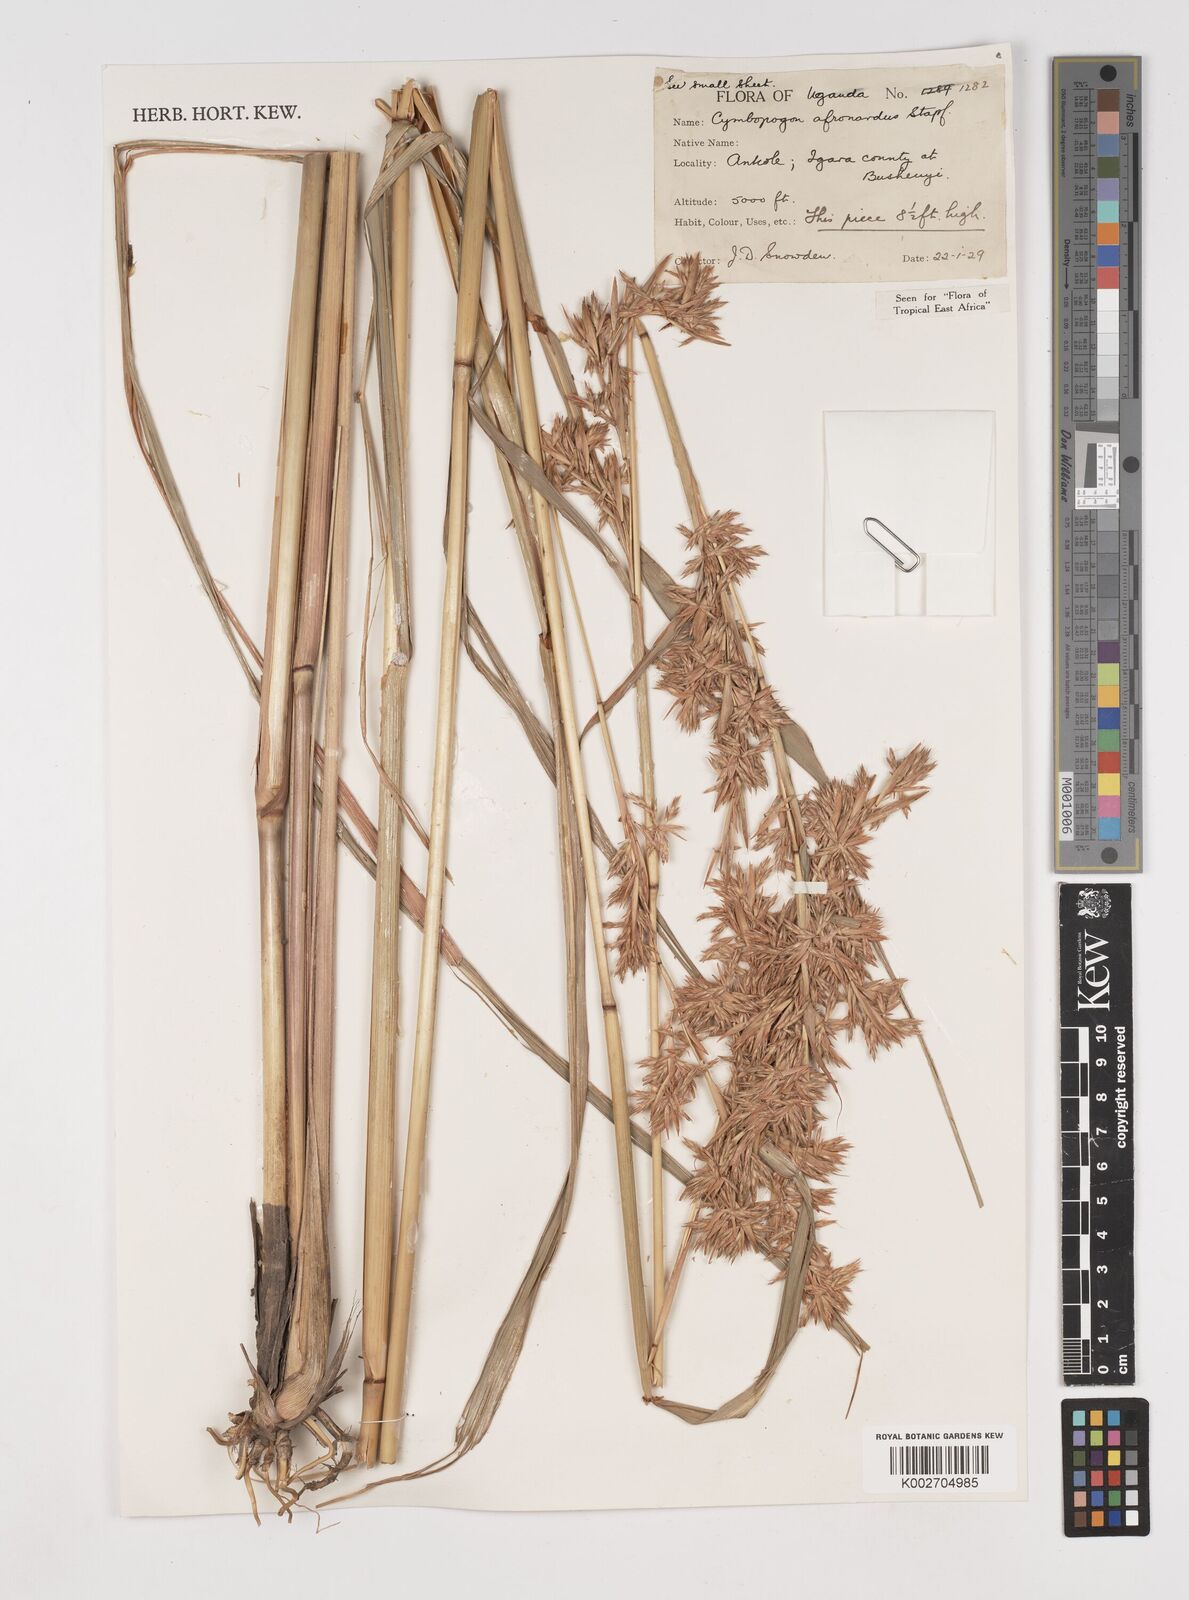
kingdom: Plantae
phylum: Tracheophyta
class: Liliopsida
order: Poales
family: Poaceae
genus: Cymbopogon
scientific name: Cymbopogon nardus
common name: Giant turpentine grass
